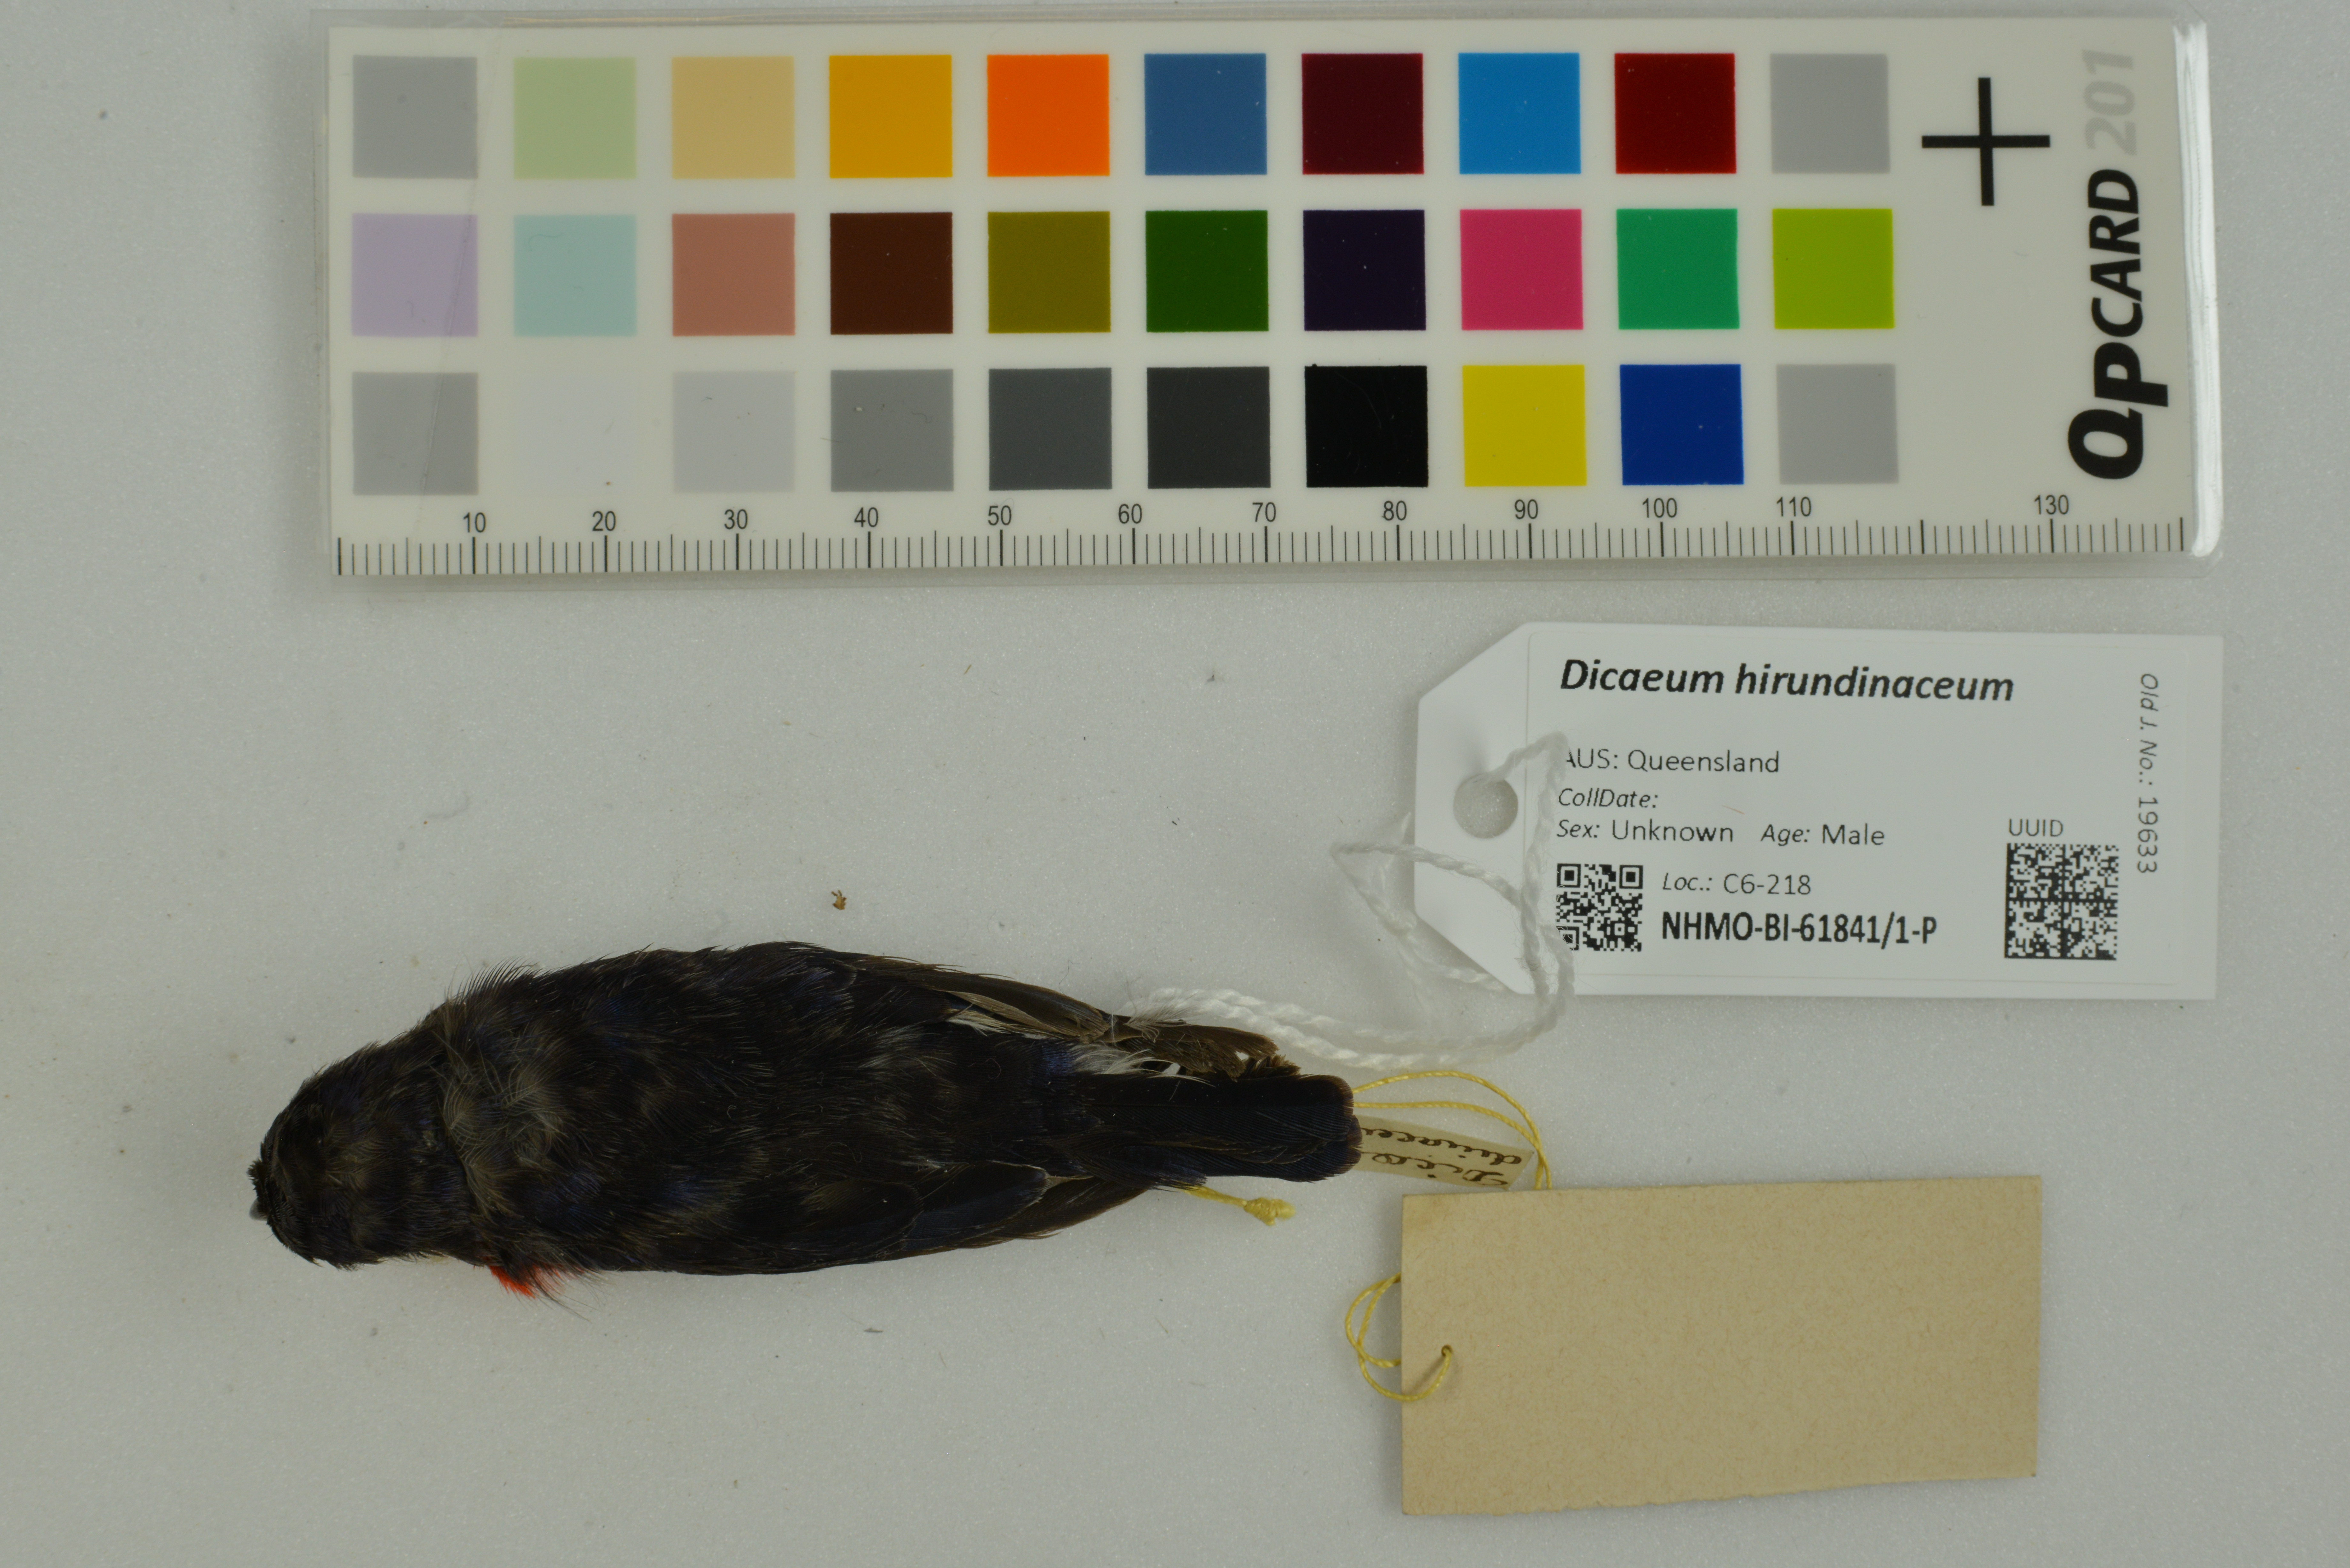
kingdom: Animalia
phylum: Chordata
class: Aves
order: Passeriformes
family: Dicaeidae
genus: Dicaeum
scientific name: Dicaeum hirundinaceum
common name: Mistletoebird
